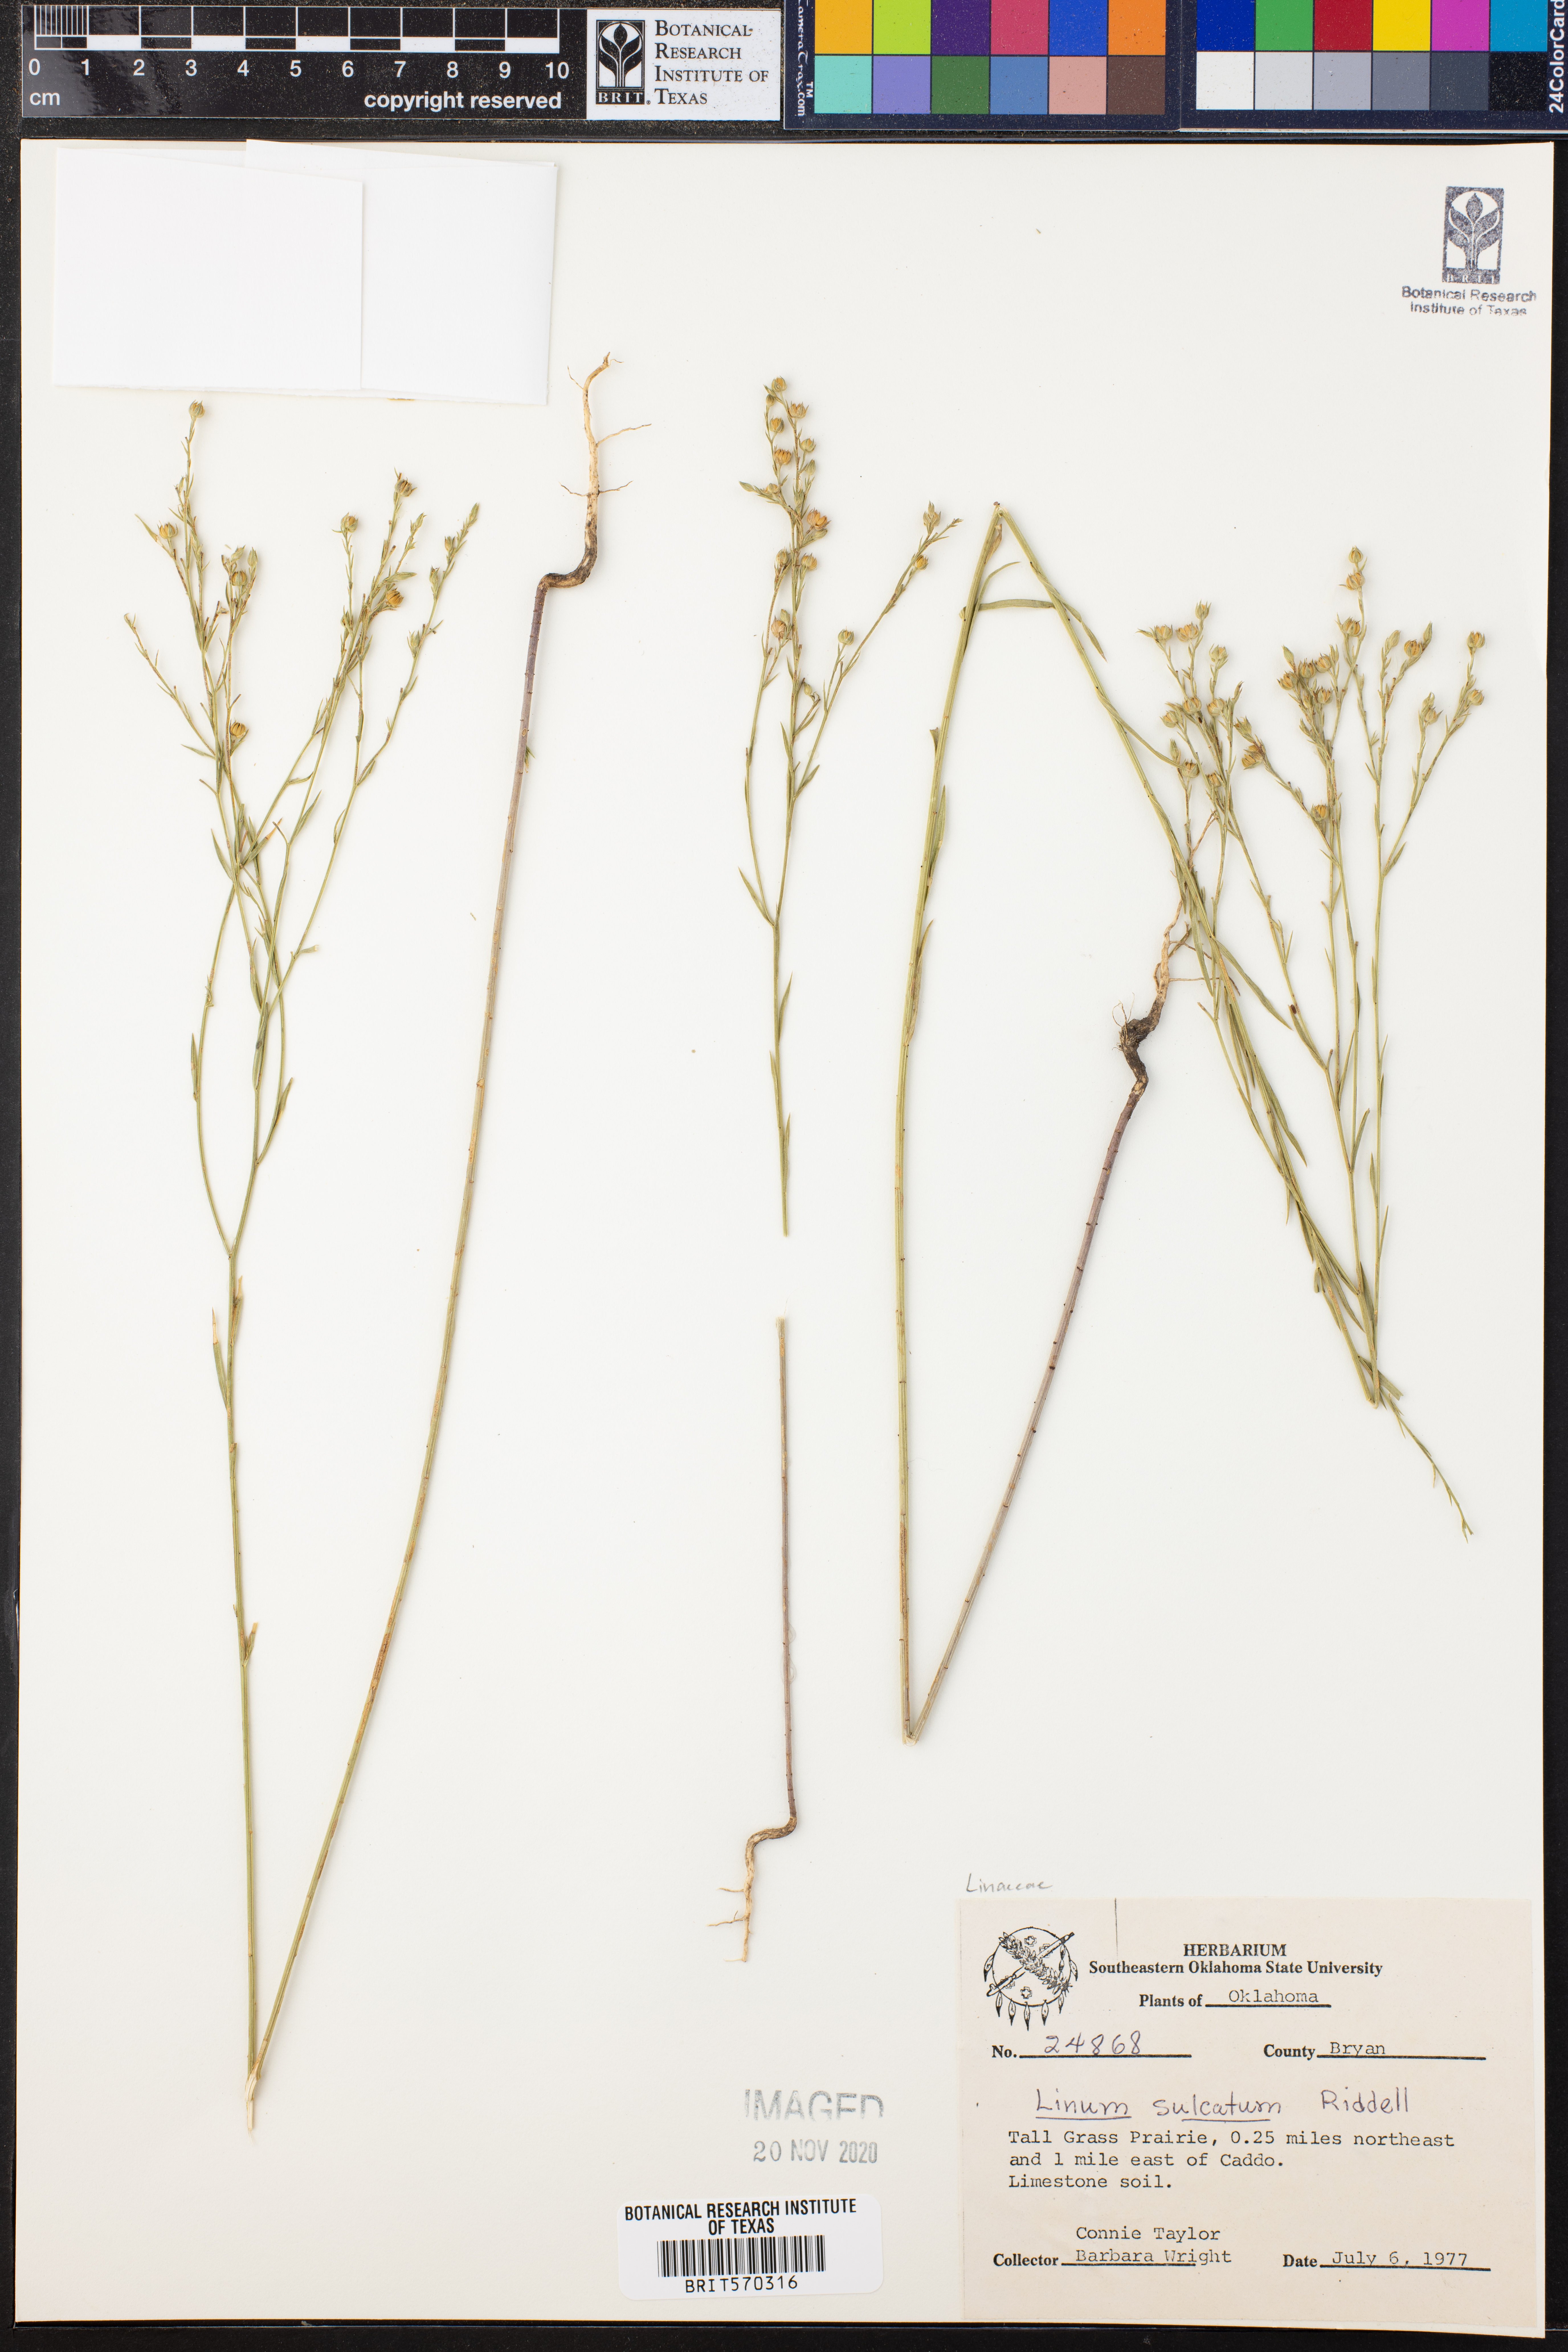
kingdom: Plantae
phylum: Tracheophyta
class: Magnoliopsida
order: Malpighiales
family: Linaceae
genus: Linum
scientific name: Linum sulcatum
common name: Grooved flax
